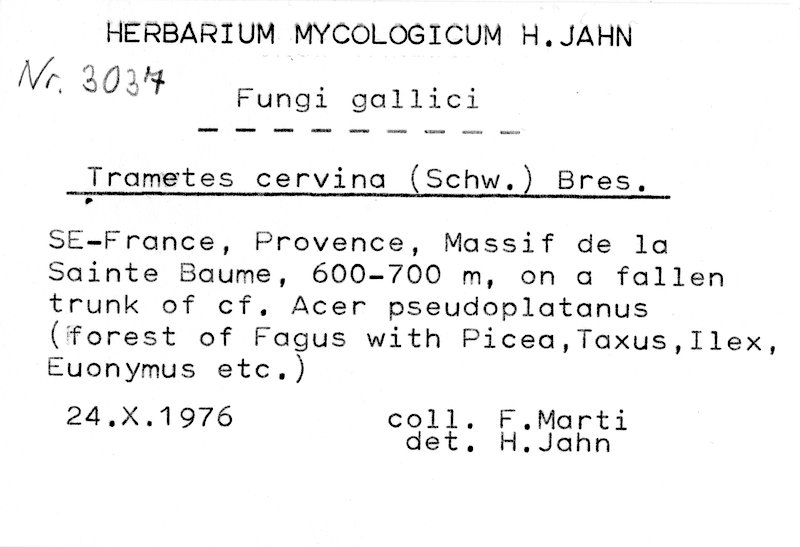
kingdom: Plantae
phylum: Tracheophyta
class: Magnoliopsida
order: Sapindales
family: Sapindaceae
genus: Acer
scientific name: Acer pseudoplatanus
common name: Sycamore
